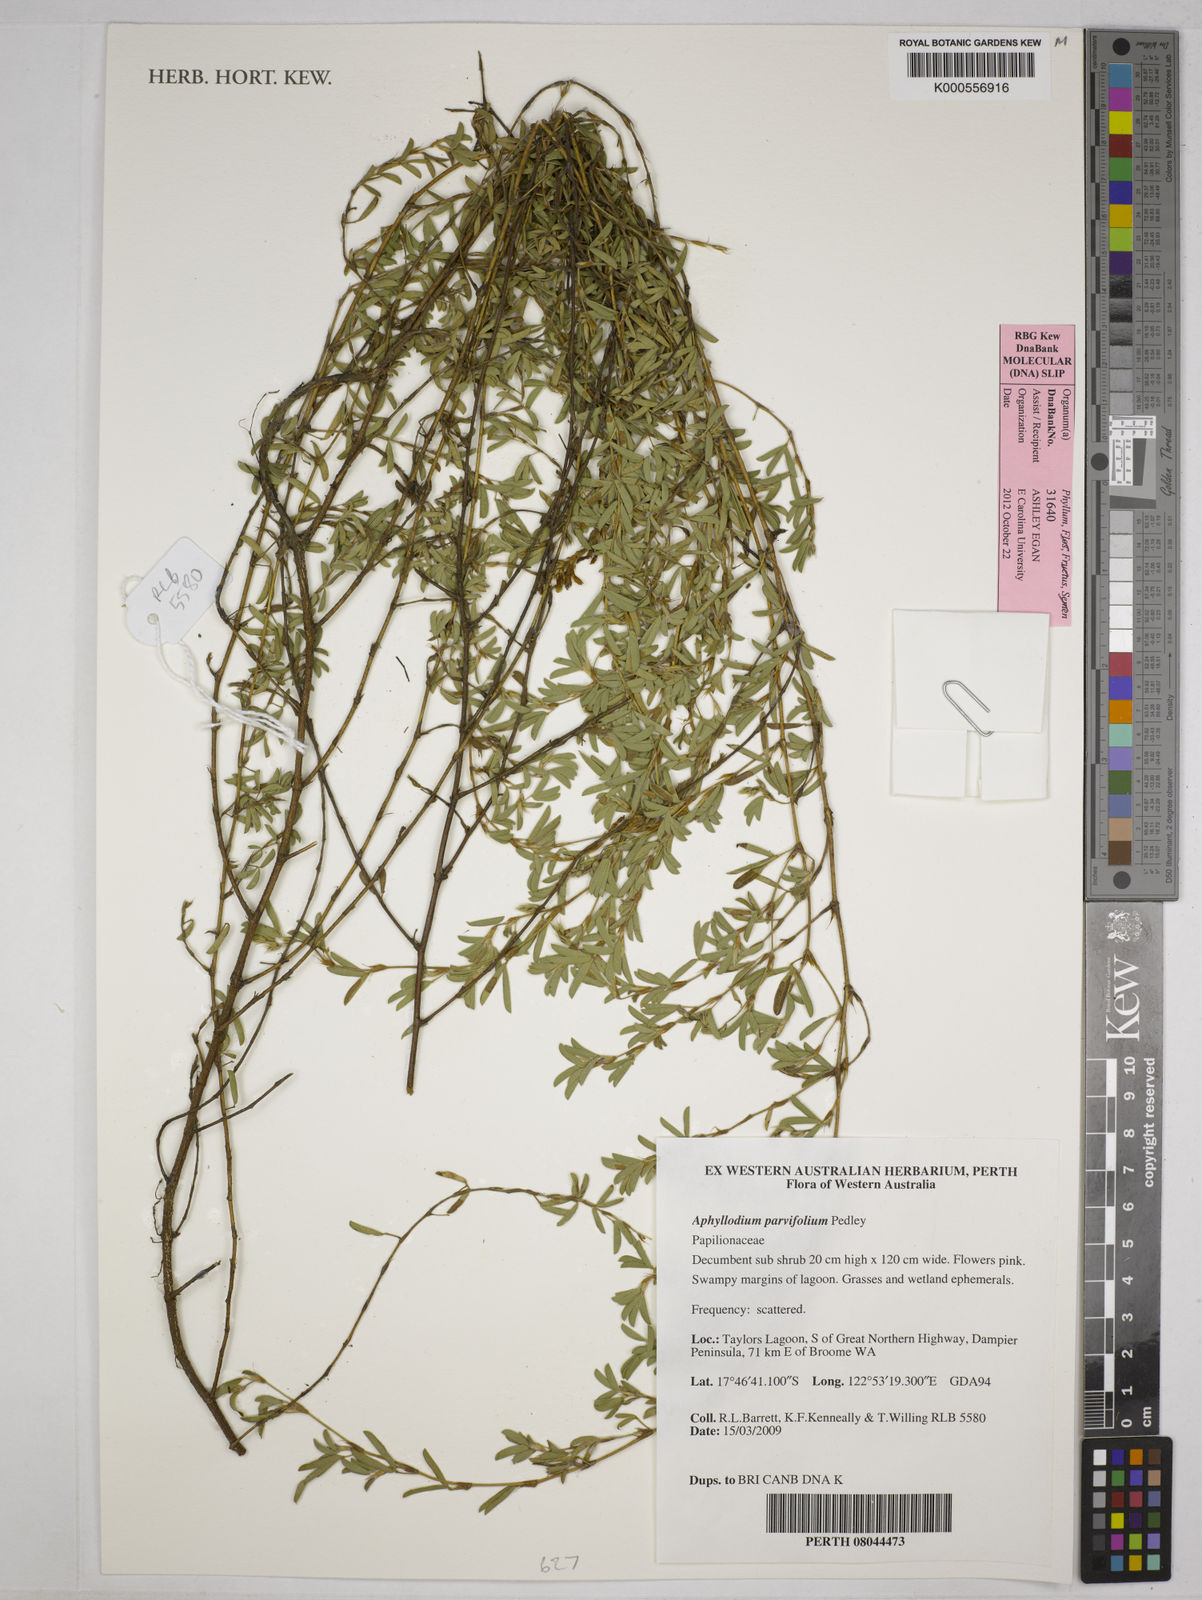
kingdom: Plantae
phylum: Tracheophyta
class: Magnoliopsida
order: Fabales
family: Fabaceae
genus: Aphyllodium
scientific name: Aphyllodium parvifolium
